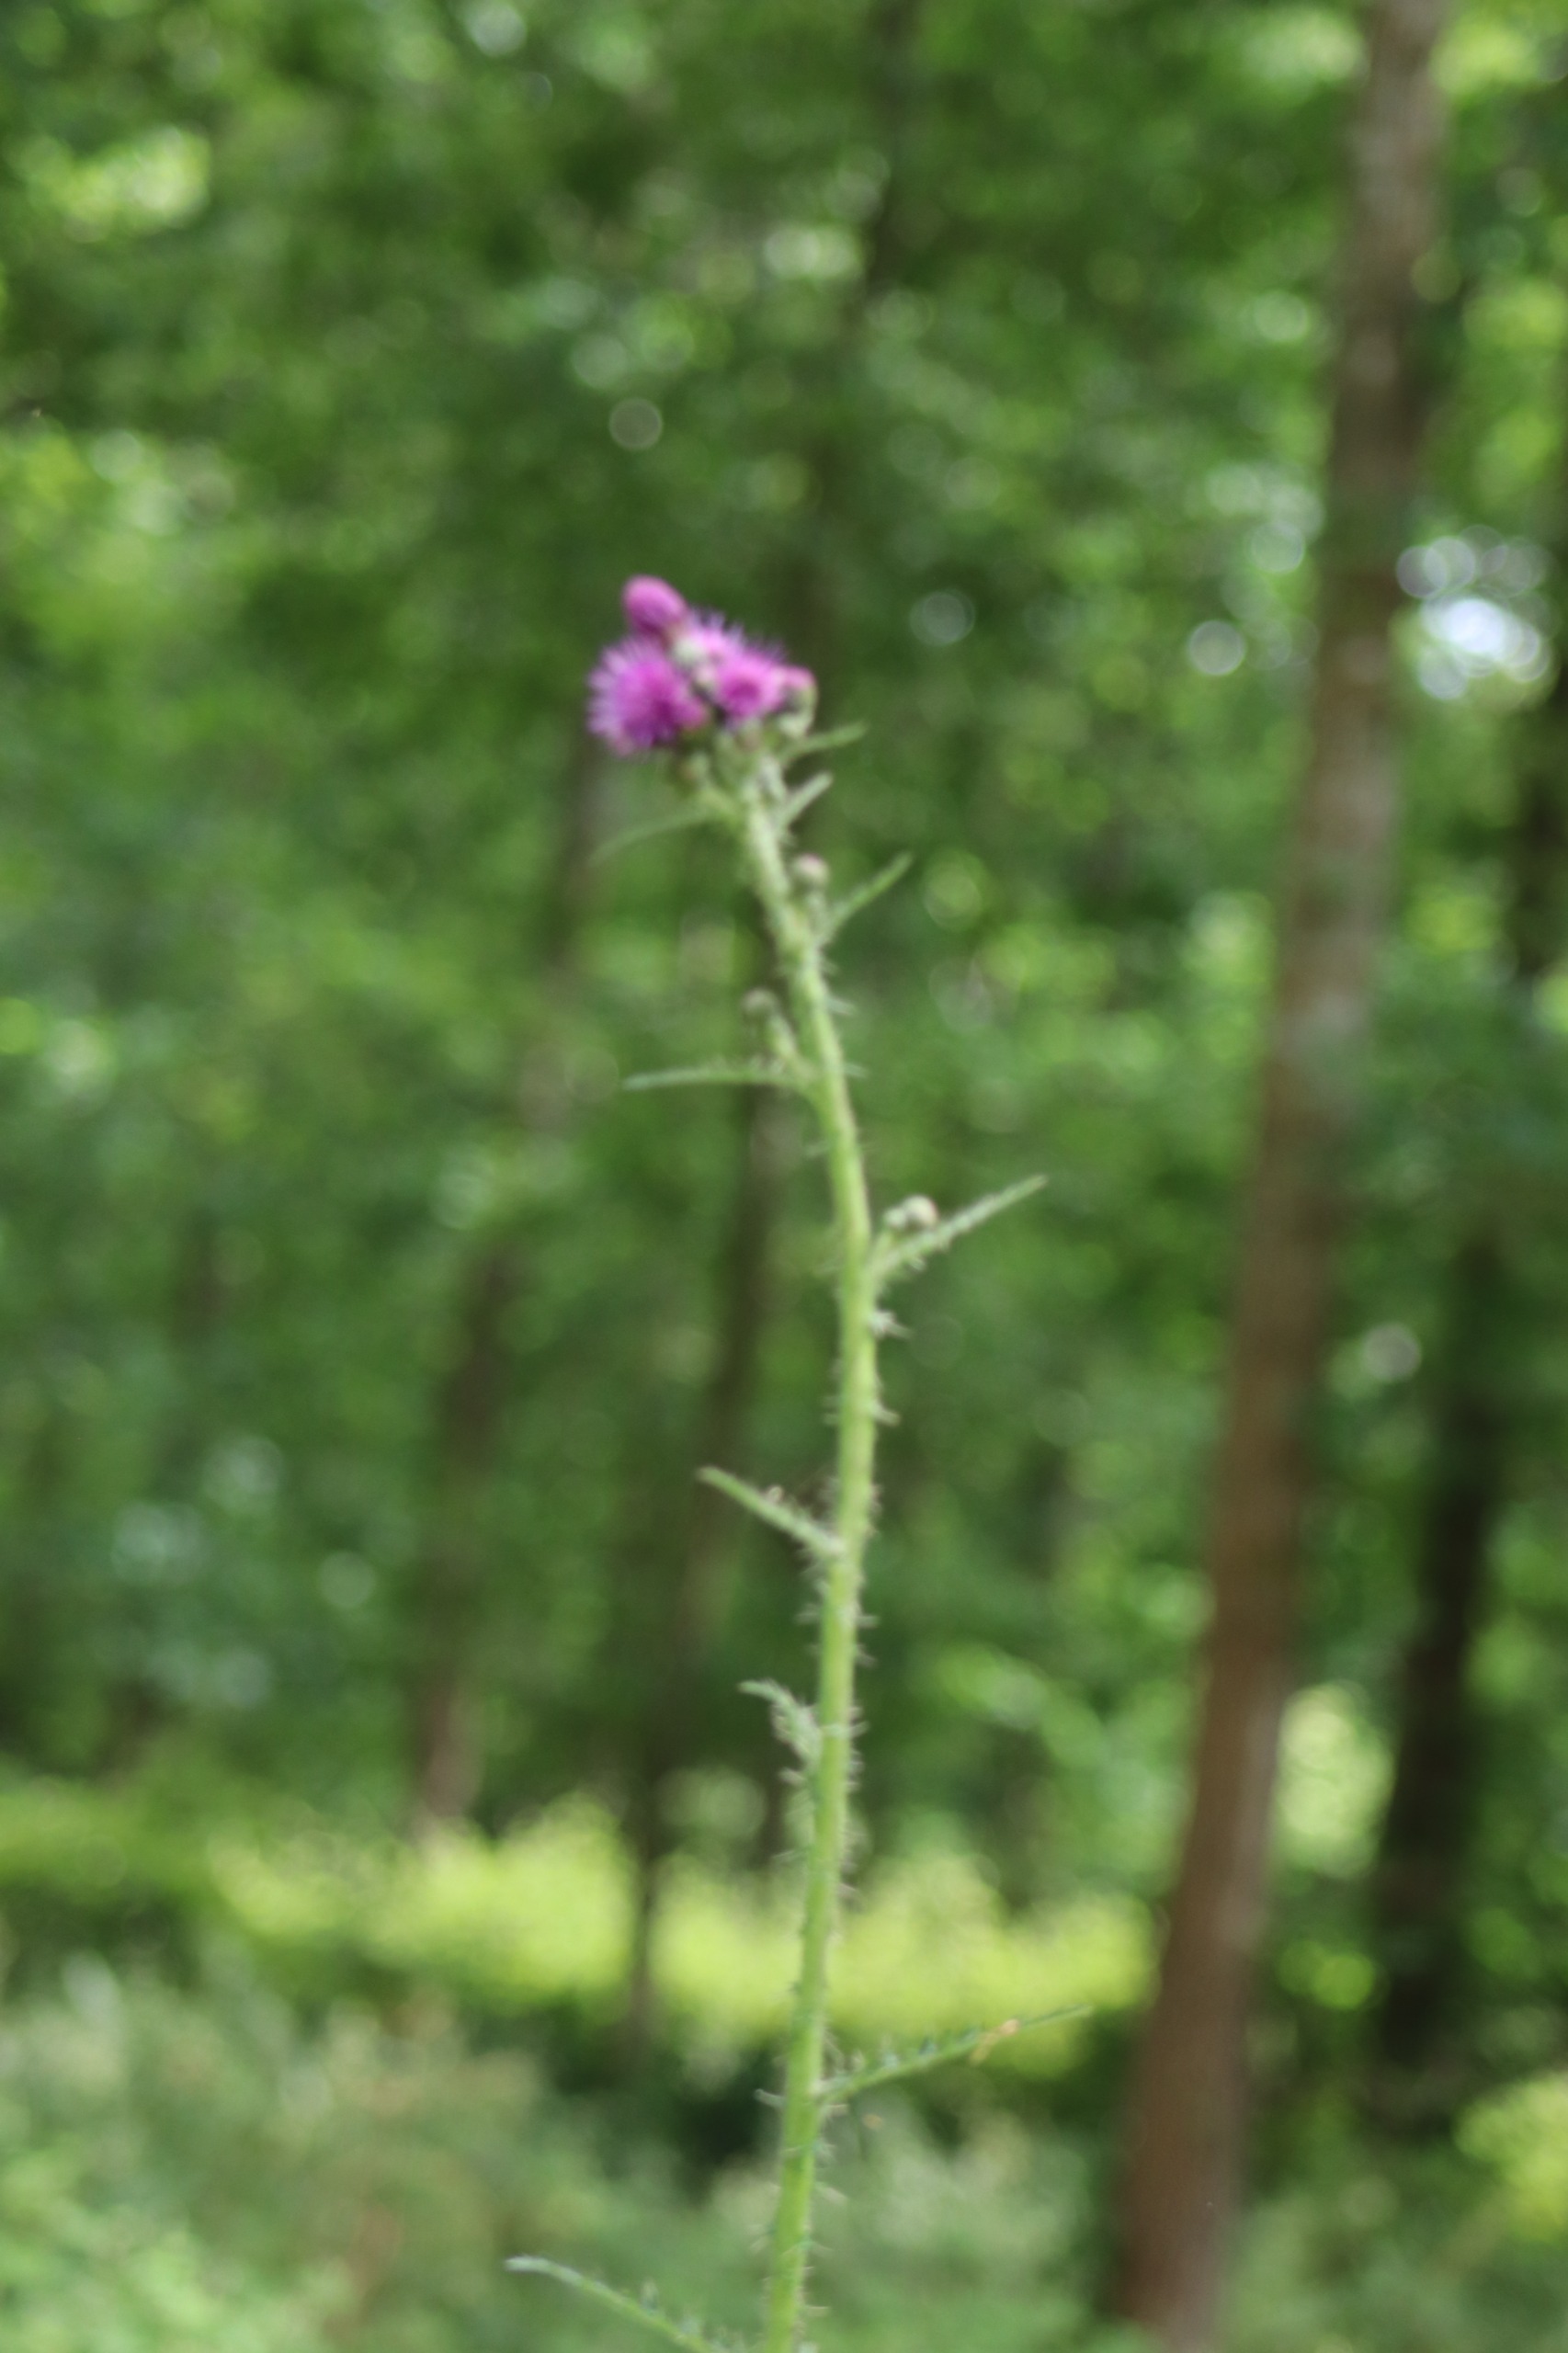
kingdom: Plantae
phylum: Tracheophyta
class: Magnoliopsida
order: Asterales
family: Asteraceae
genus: Cirsium
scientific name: Cirsium palustre
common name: Kær-tidsel
